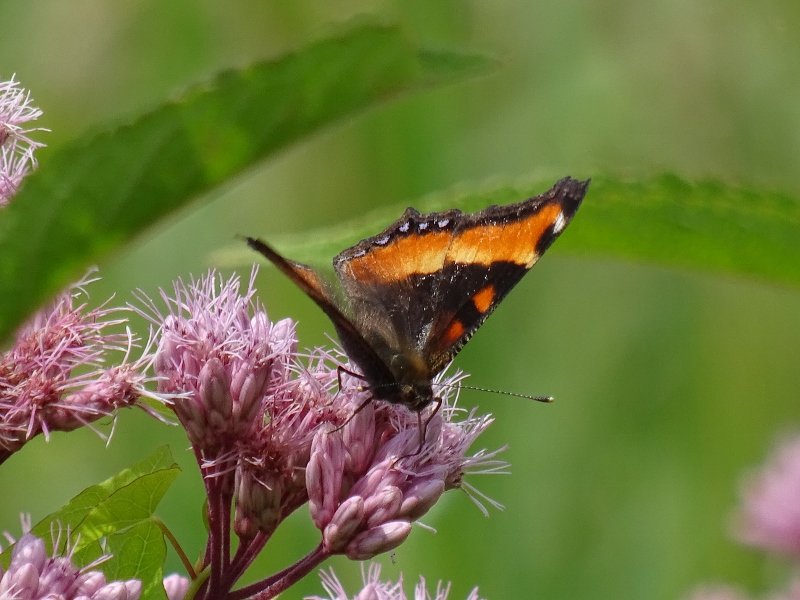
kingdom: Animalia
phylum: Arthropoda
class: Insecta
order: Lepidoptera
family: Nymphalidae
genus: Aglais
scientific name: Aglais milberti
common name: Milbert's Tortoiseshell
